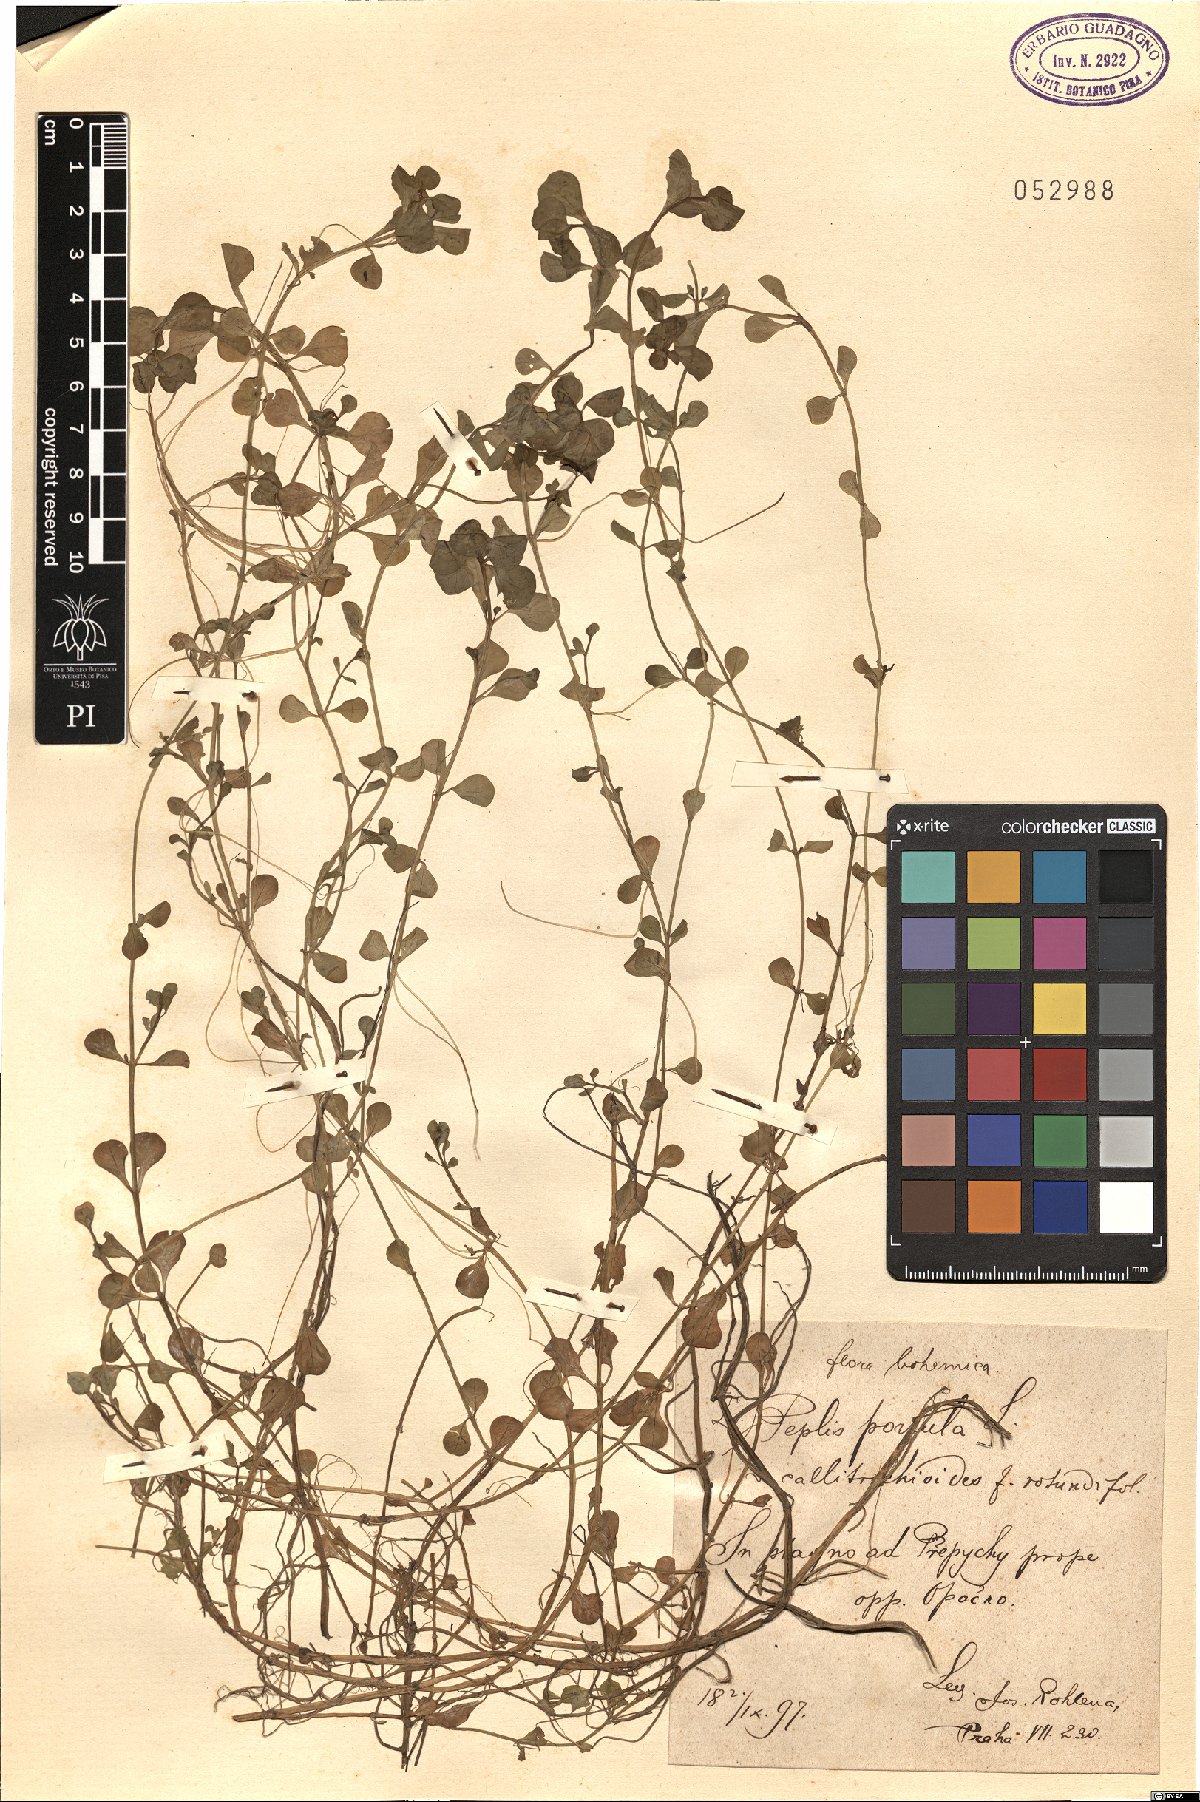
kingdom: Plantae
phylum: Tracheophyta
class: Magnoliopsida
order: Myrtales
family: Lythraceae
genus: Lythrum
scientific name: Lythrum portula
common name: Water purslane
